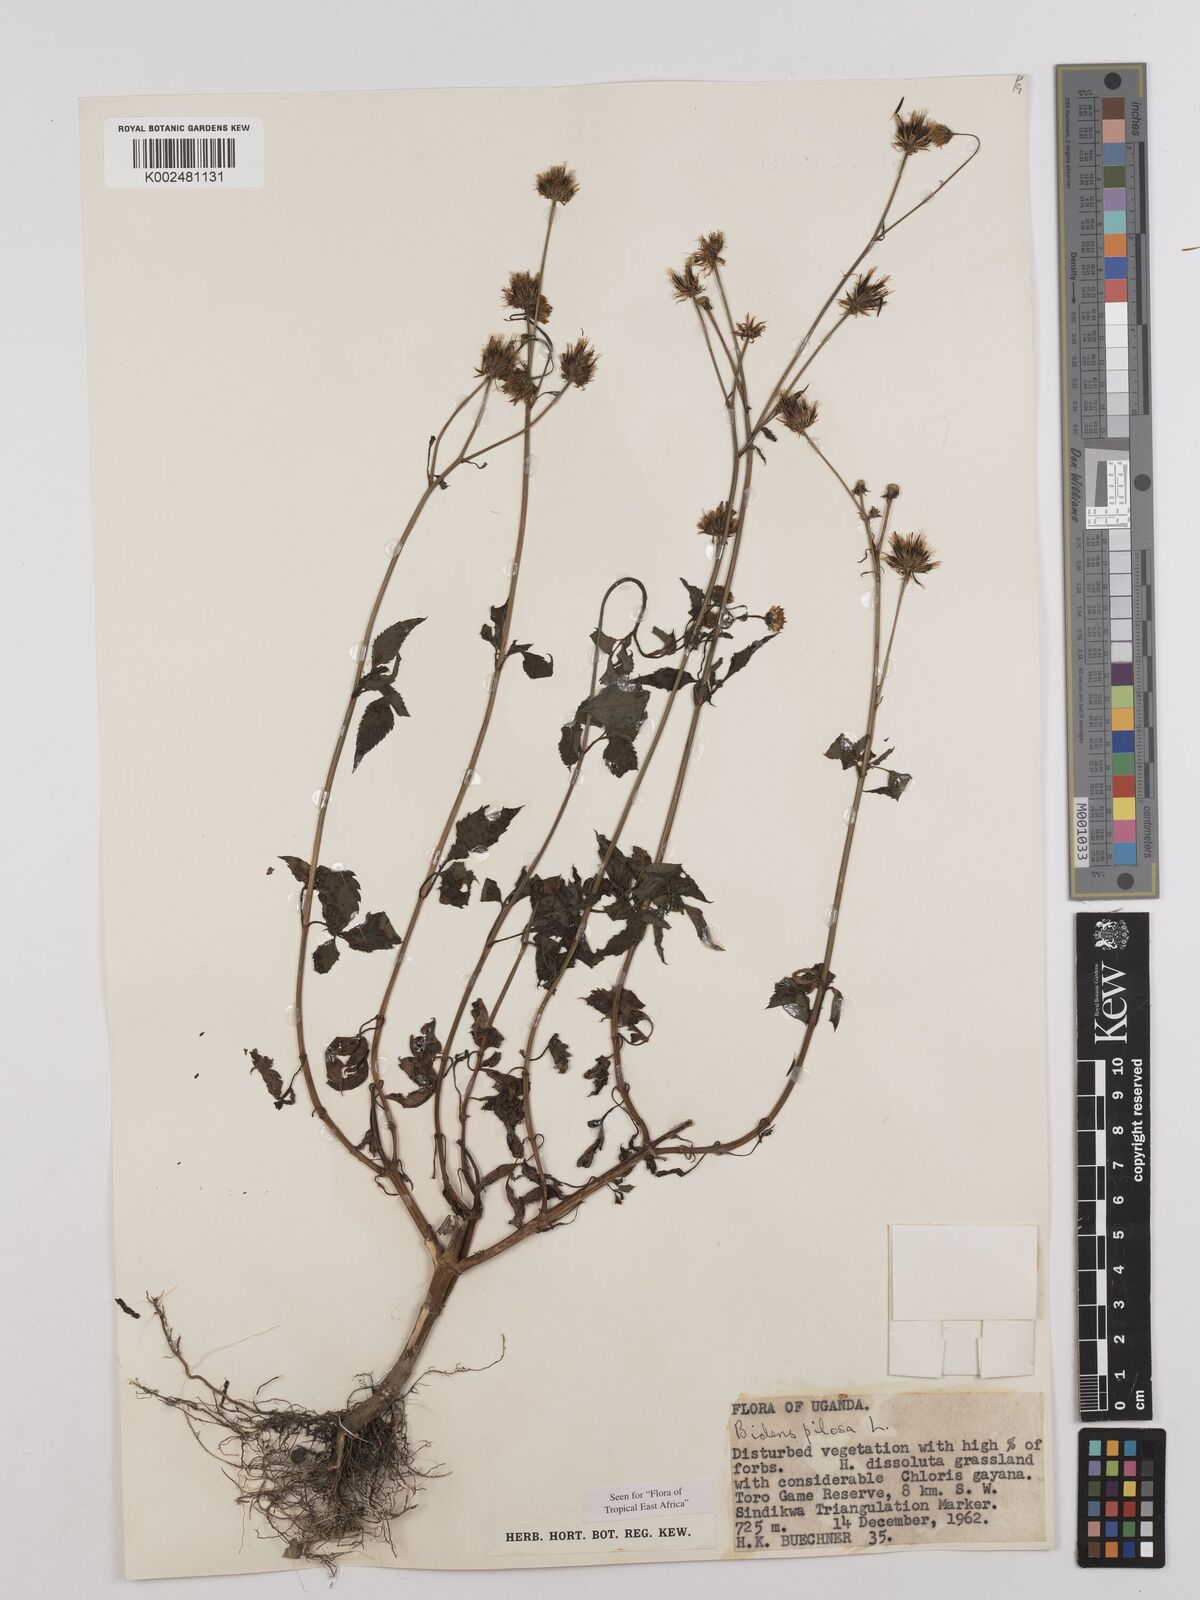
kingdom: Plantae
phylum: Tracheophyta
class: Magnoliopsida
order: Asterales
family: Asteraceae
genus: Bidens
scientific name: Bidens pilosa
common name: Black-jack
